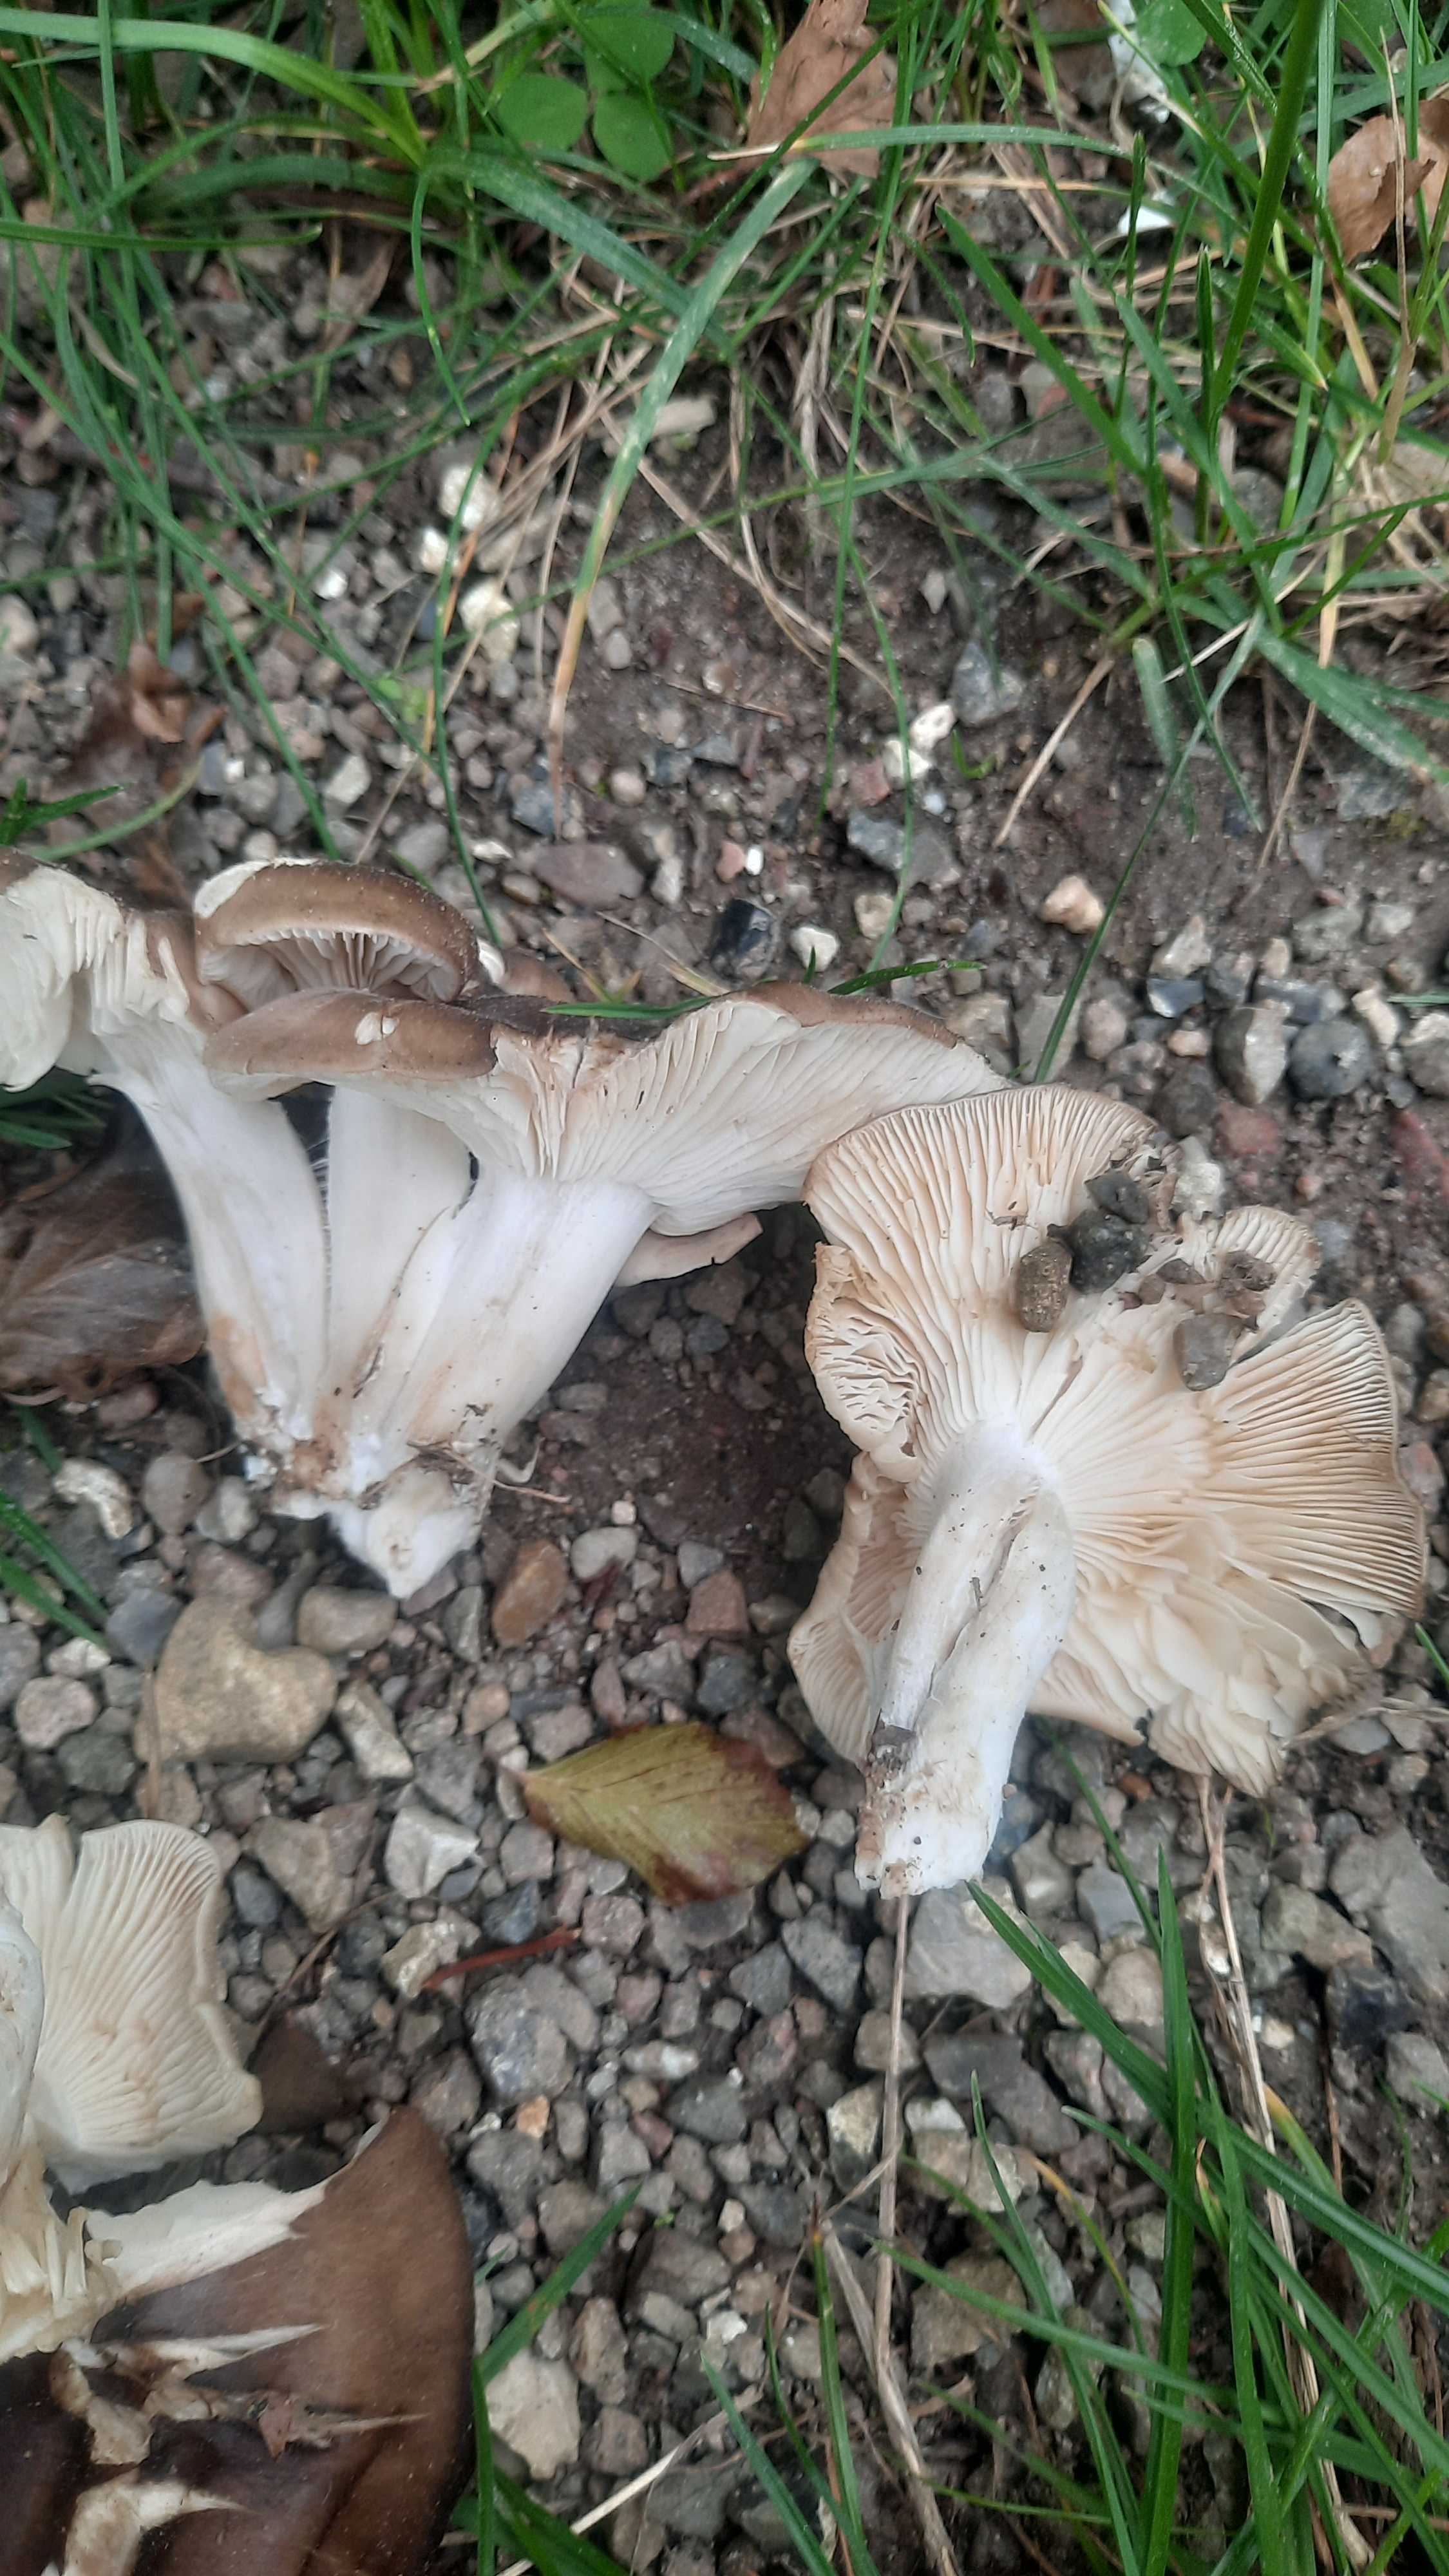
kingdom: Fungi
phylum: Basidiomycota
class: Agaricomycetes
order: Agaricales
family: Lyophyllaceae
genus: Lyophyllum
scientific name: Lyophyllum
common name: gråblad
